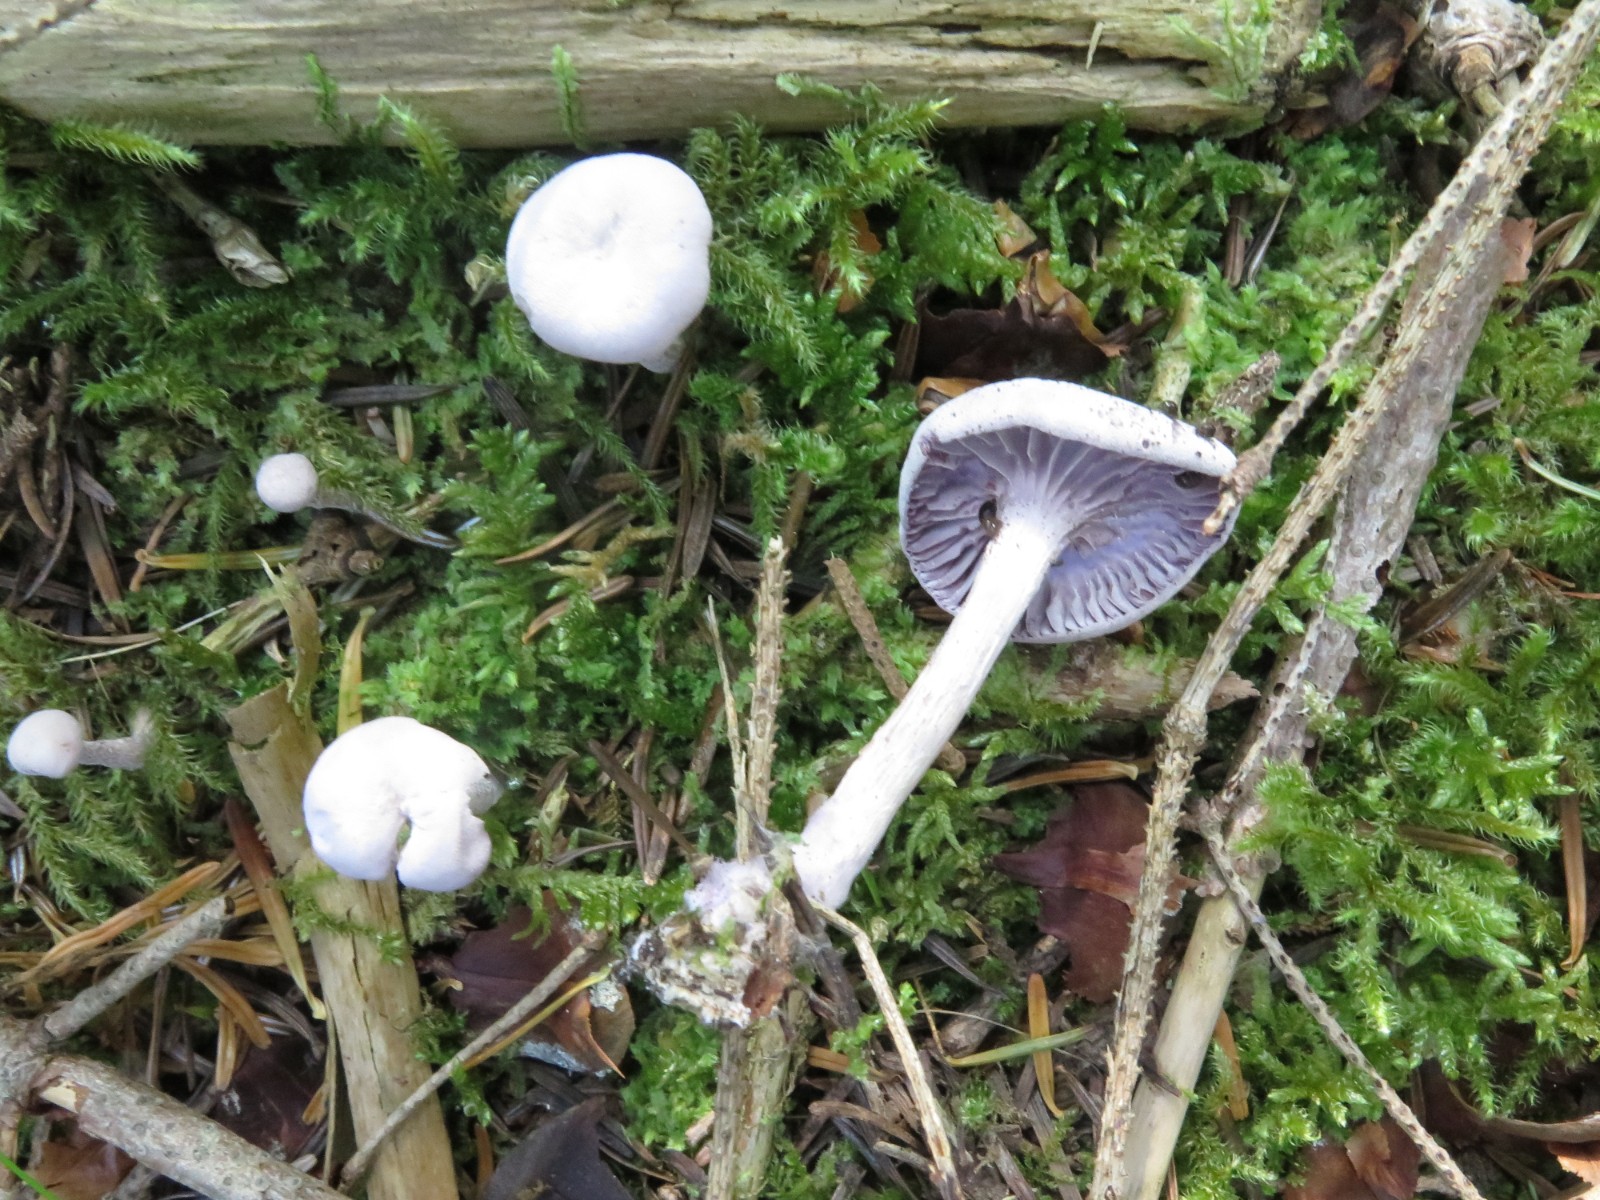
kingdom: Fungi
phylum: Basidiomycota
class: Agaricomycetes
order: Agaricales
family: Hydnangiaceae
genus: Laccaria
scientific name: Laccaria amethystina
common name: violet ametysthat
